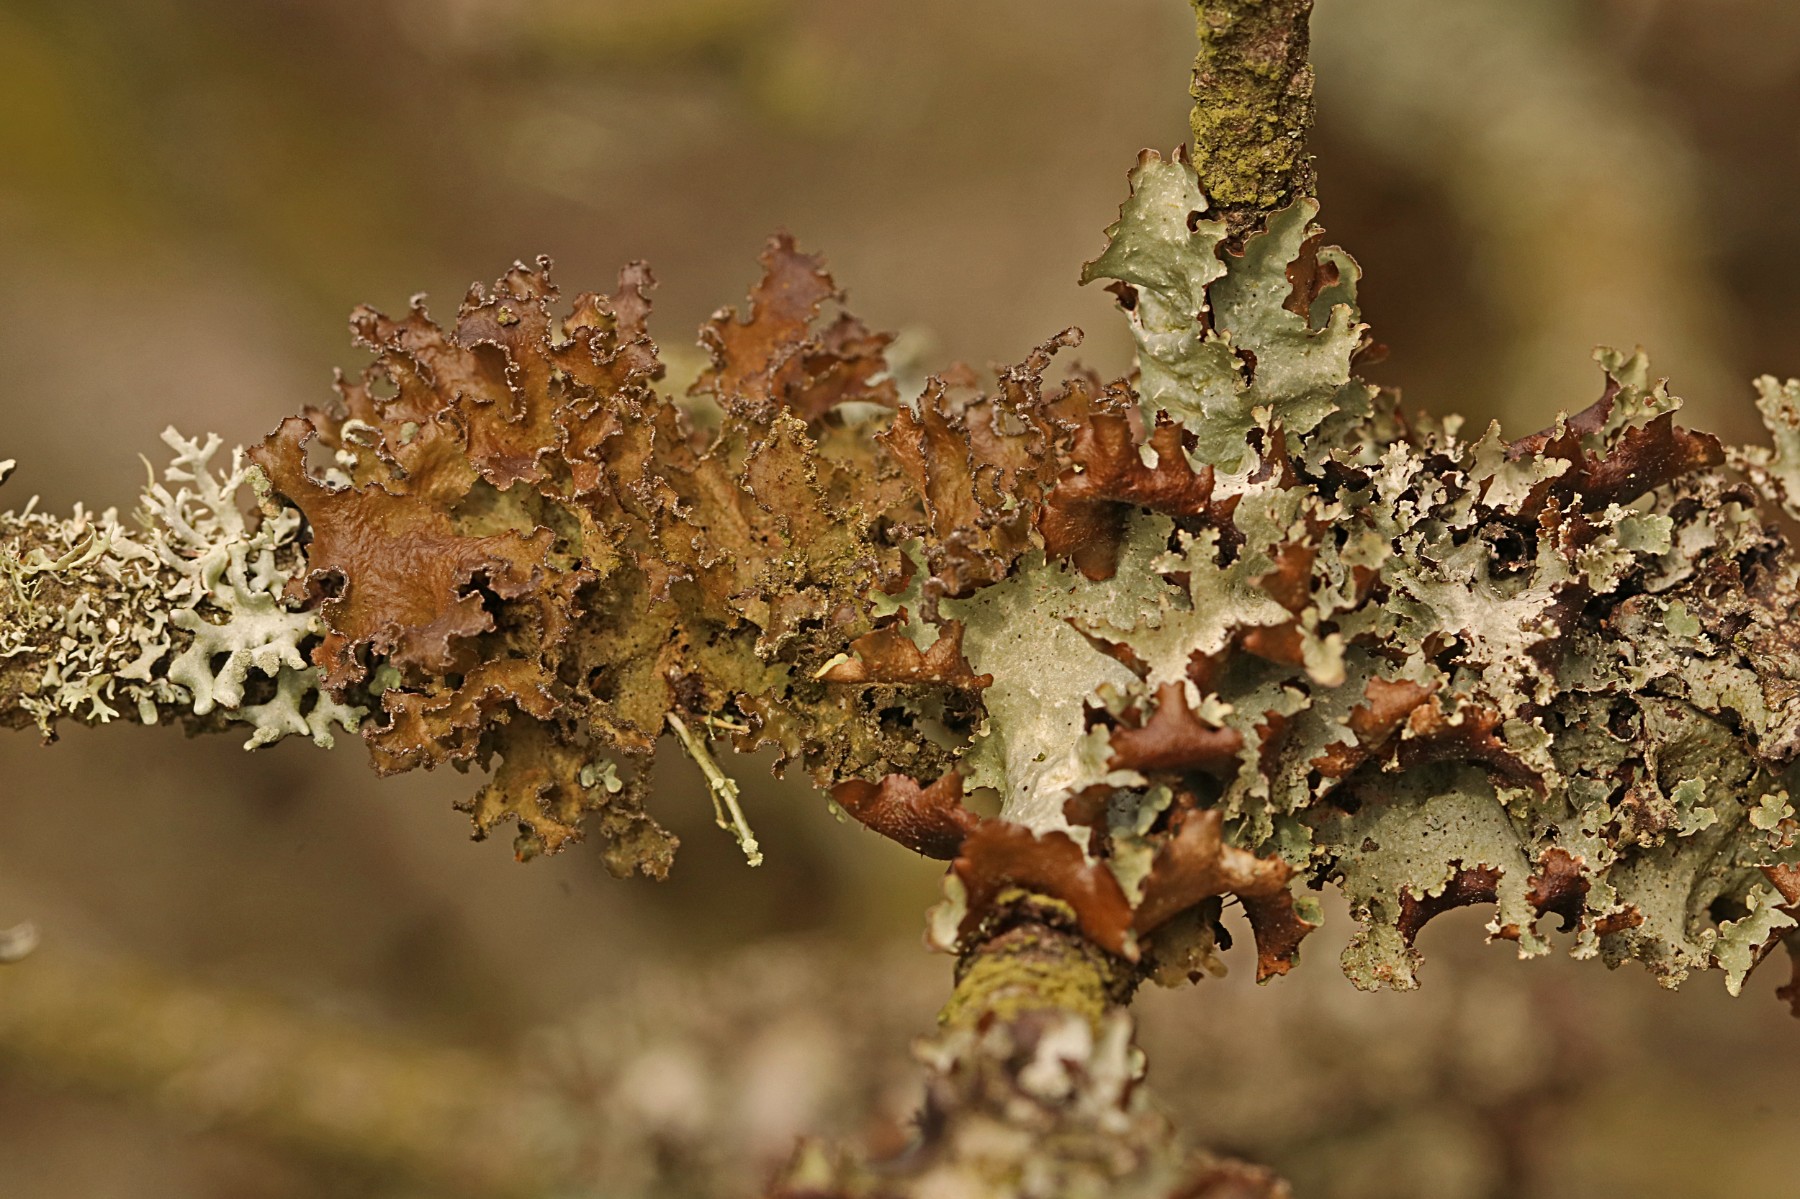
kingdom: Fungi
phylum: Ascomycota
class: Lecanoromycetes
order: Lecanorales
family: Parmeliaceae
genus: Nephromopsis
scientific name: Nephromopsis chlorophylla
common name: olivenbrun kruslav
